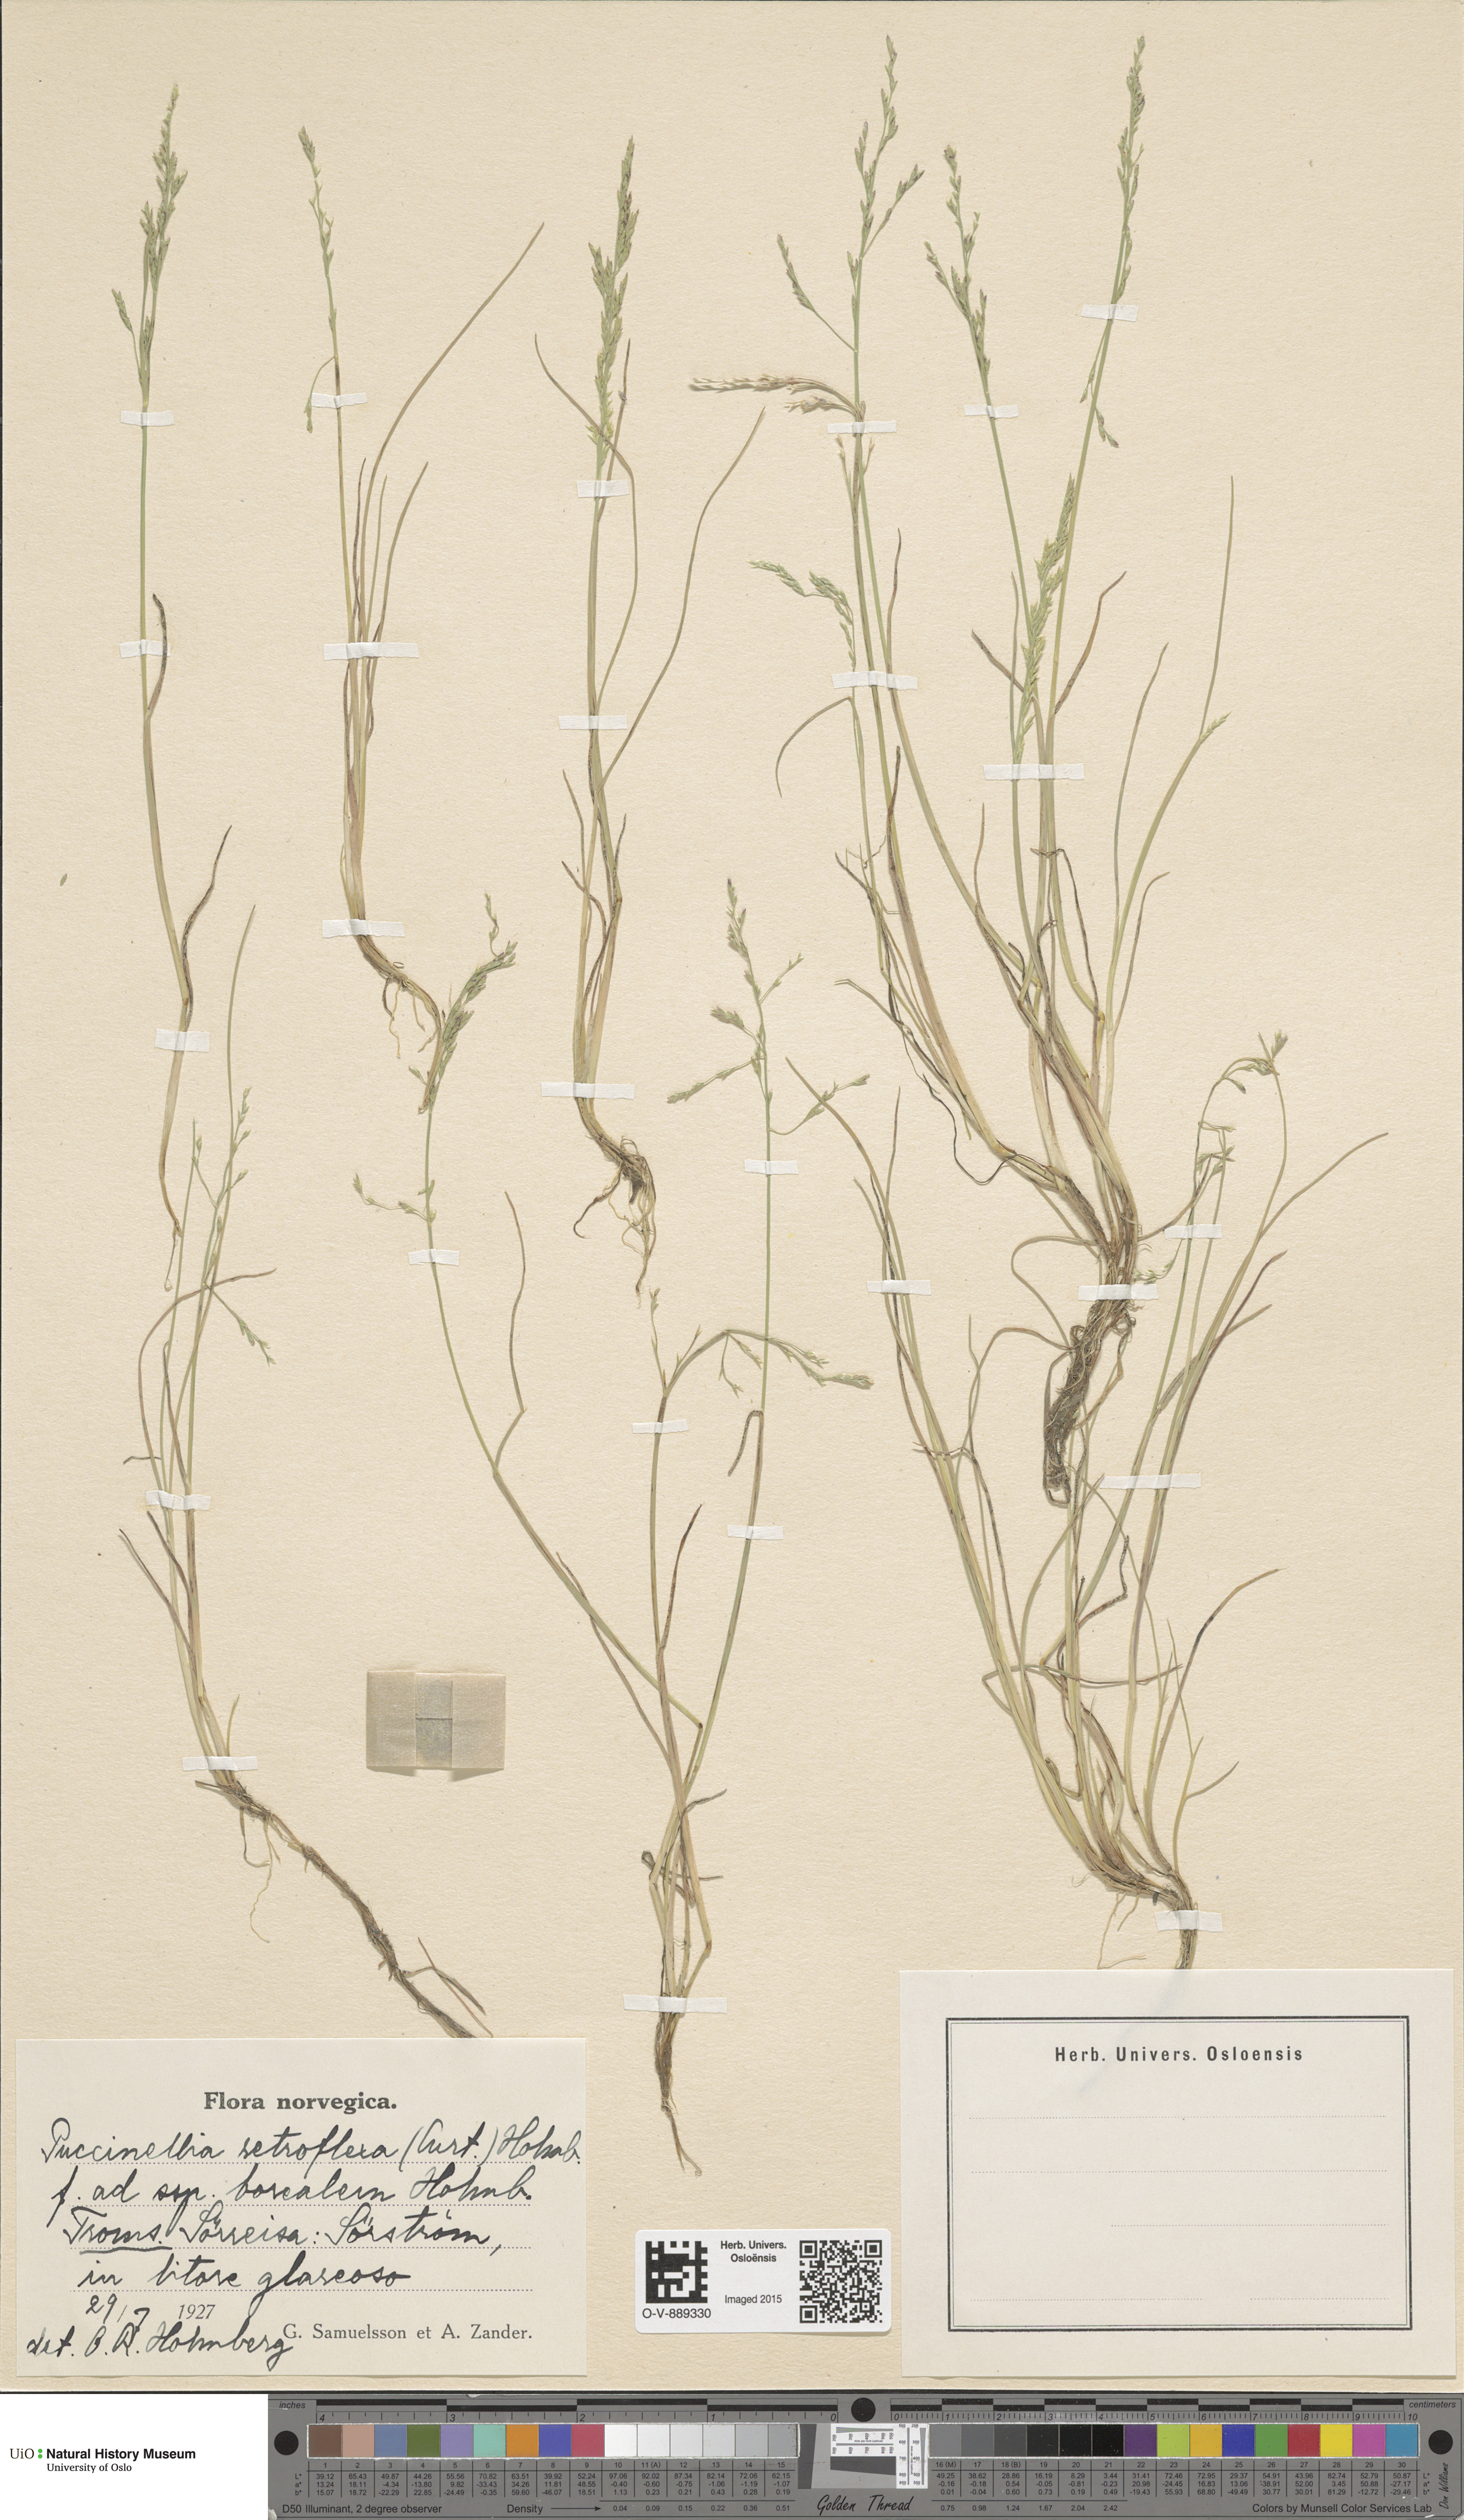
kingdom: Plantae
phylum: Tracheophyta
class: Liliopsida
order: Poales
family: Poaceae
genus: Puccinellia
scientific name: Puccinellia distans
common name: Weeping alkaligrass
